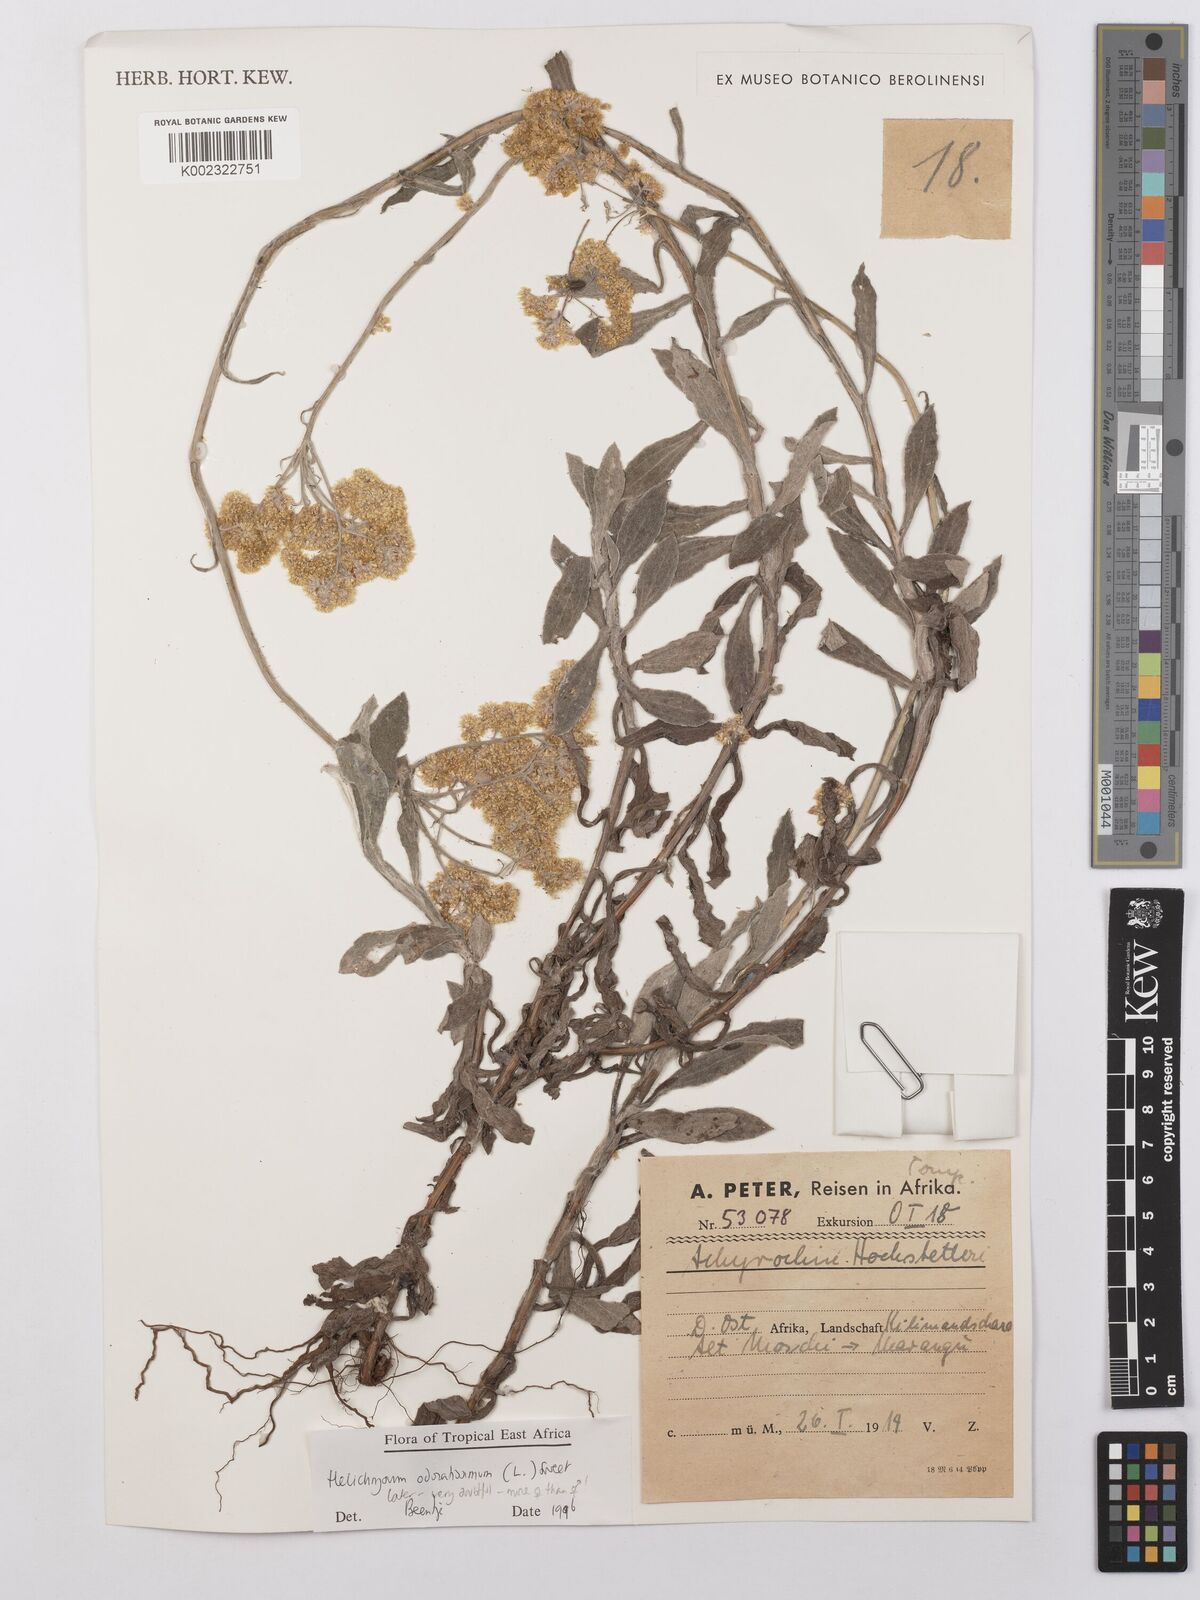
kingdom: Plantae
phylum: Tracheophyta
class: Magnoliopsida
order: Asterales
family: Asteraceae
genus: Helichrysum
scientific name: Helichrysum odoratissimum
